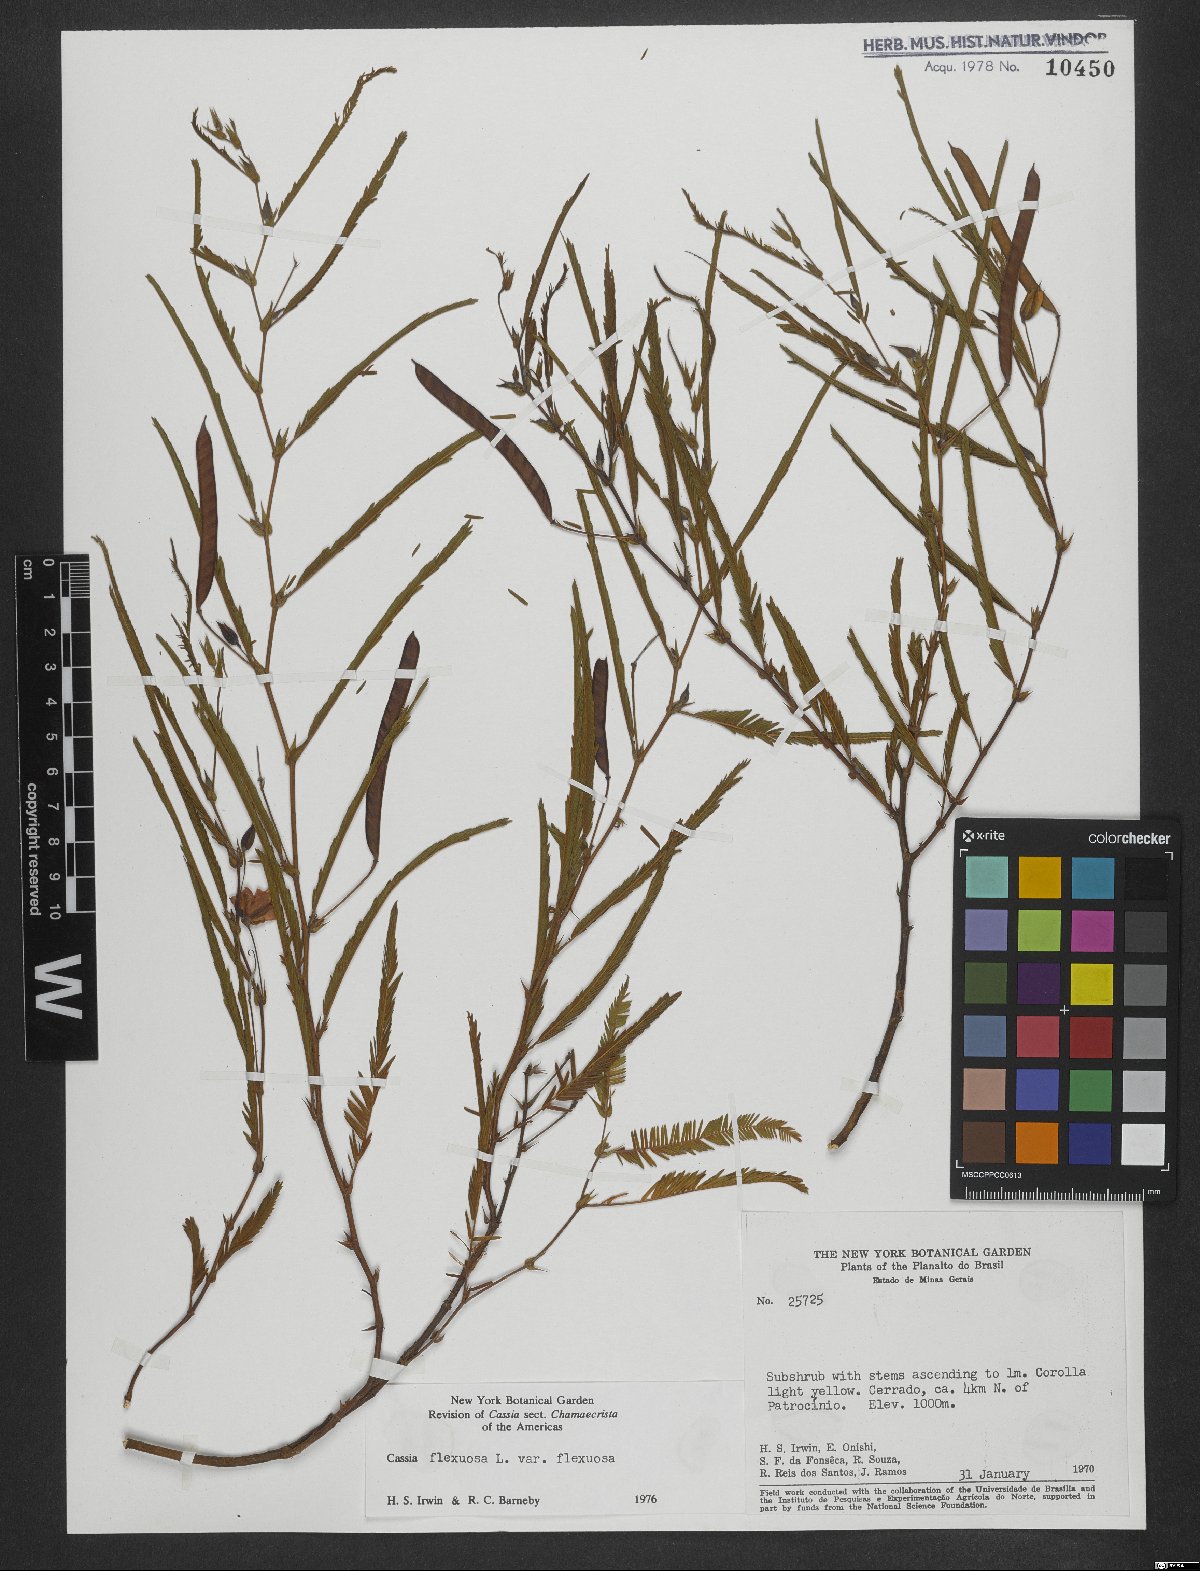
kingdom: Plantae
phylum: Tracheophyta
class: Magnoliopsida
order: Fabales
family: Fabaceae
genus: Chamaecrista
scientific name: Chamaecrista flexuosa
